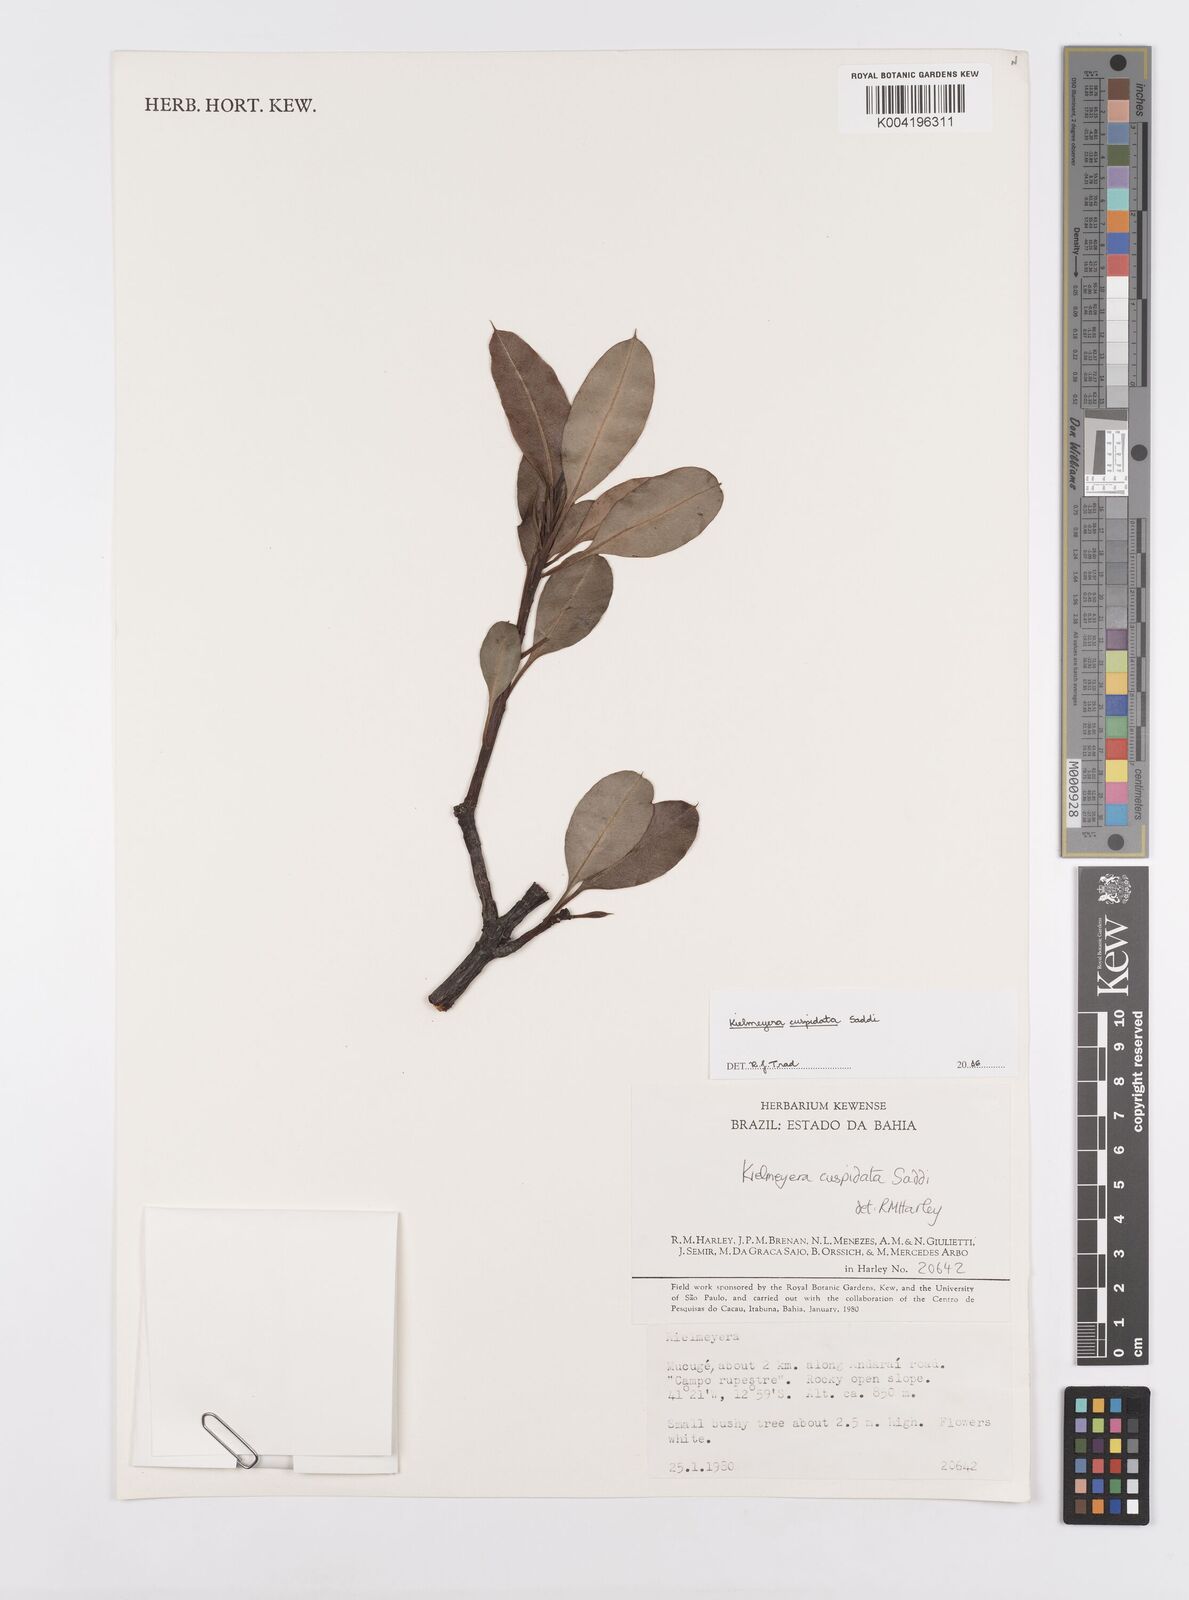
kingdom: Plantae
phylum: Tracheophyta
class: Magnoliopsida
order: Malpighiales
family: Calophyllaceae
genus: Kielmeyera
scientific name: Kielmeyera cuspidata
